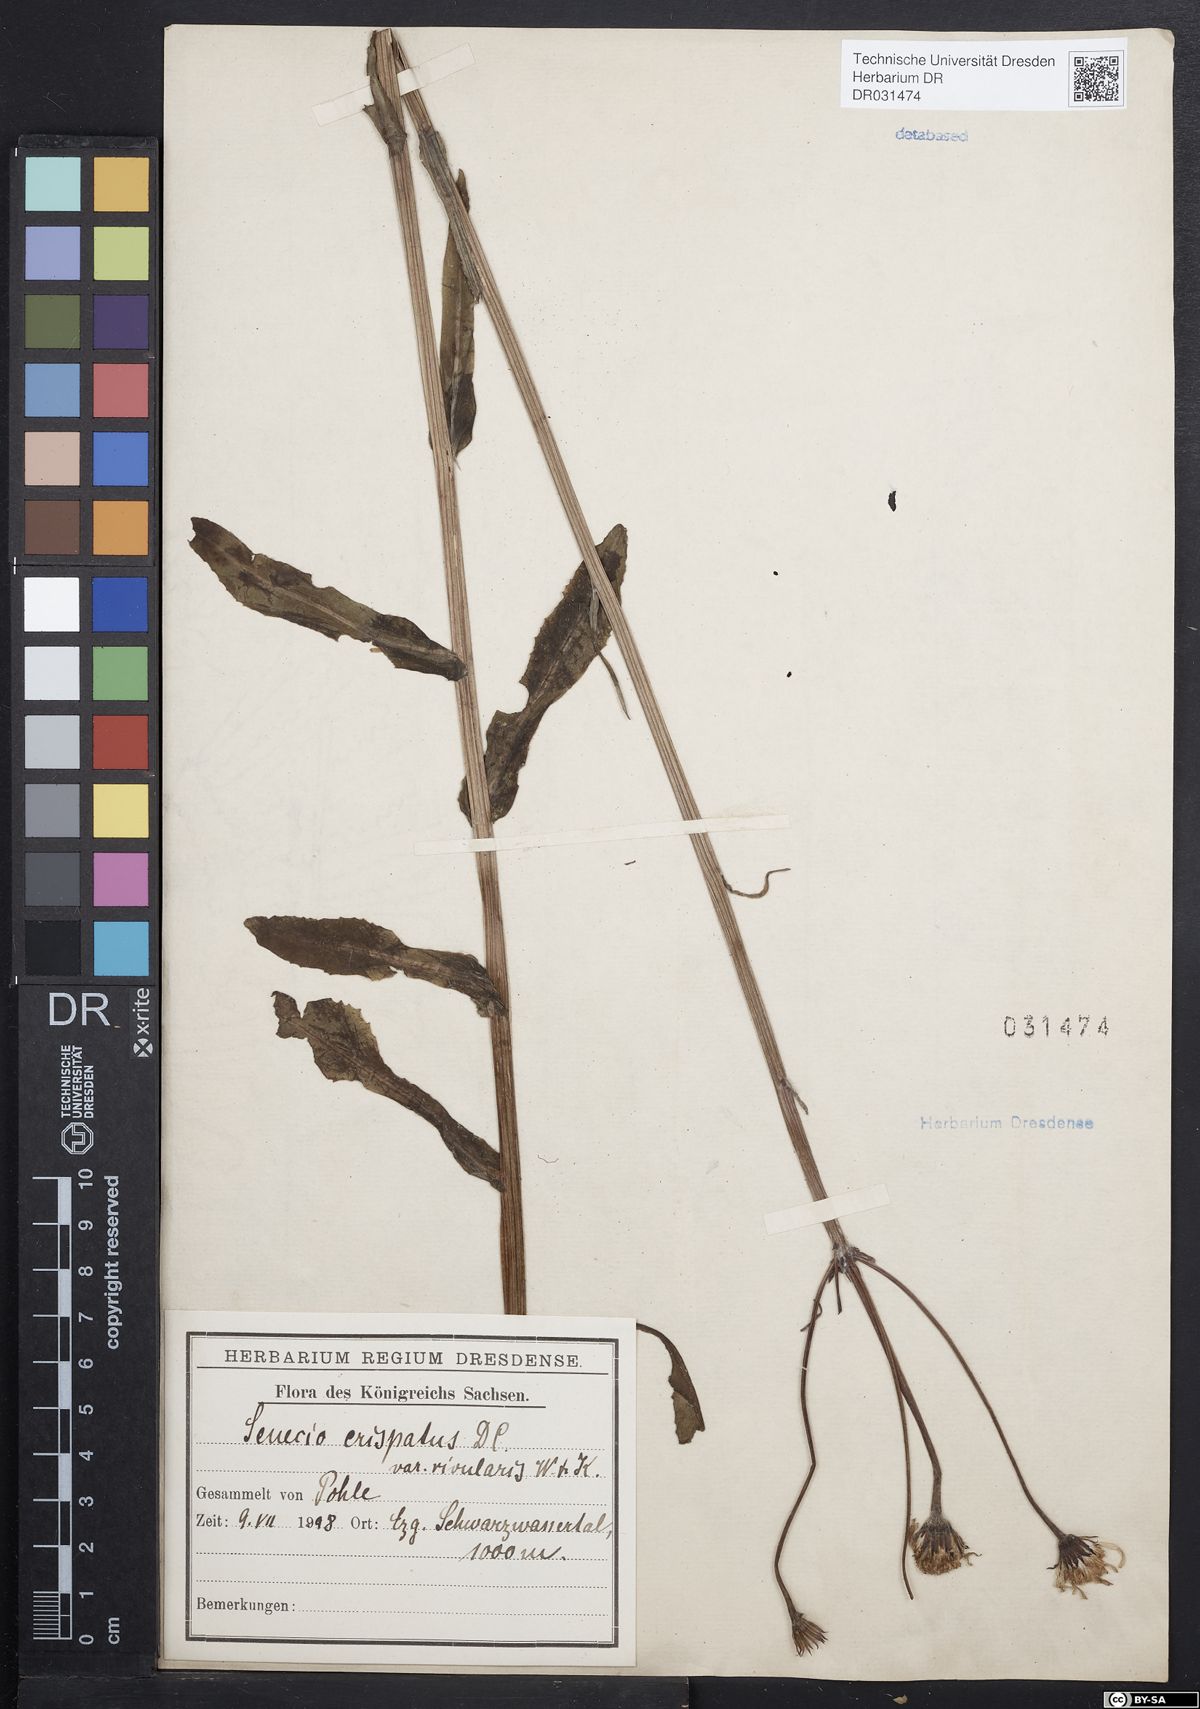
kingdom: Plantae
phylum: Tracheophyta
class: Magnoliopsida
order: Asterales
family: Asteraceae
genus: Tephroseris
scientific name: Tephroseris crispa
